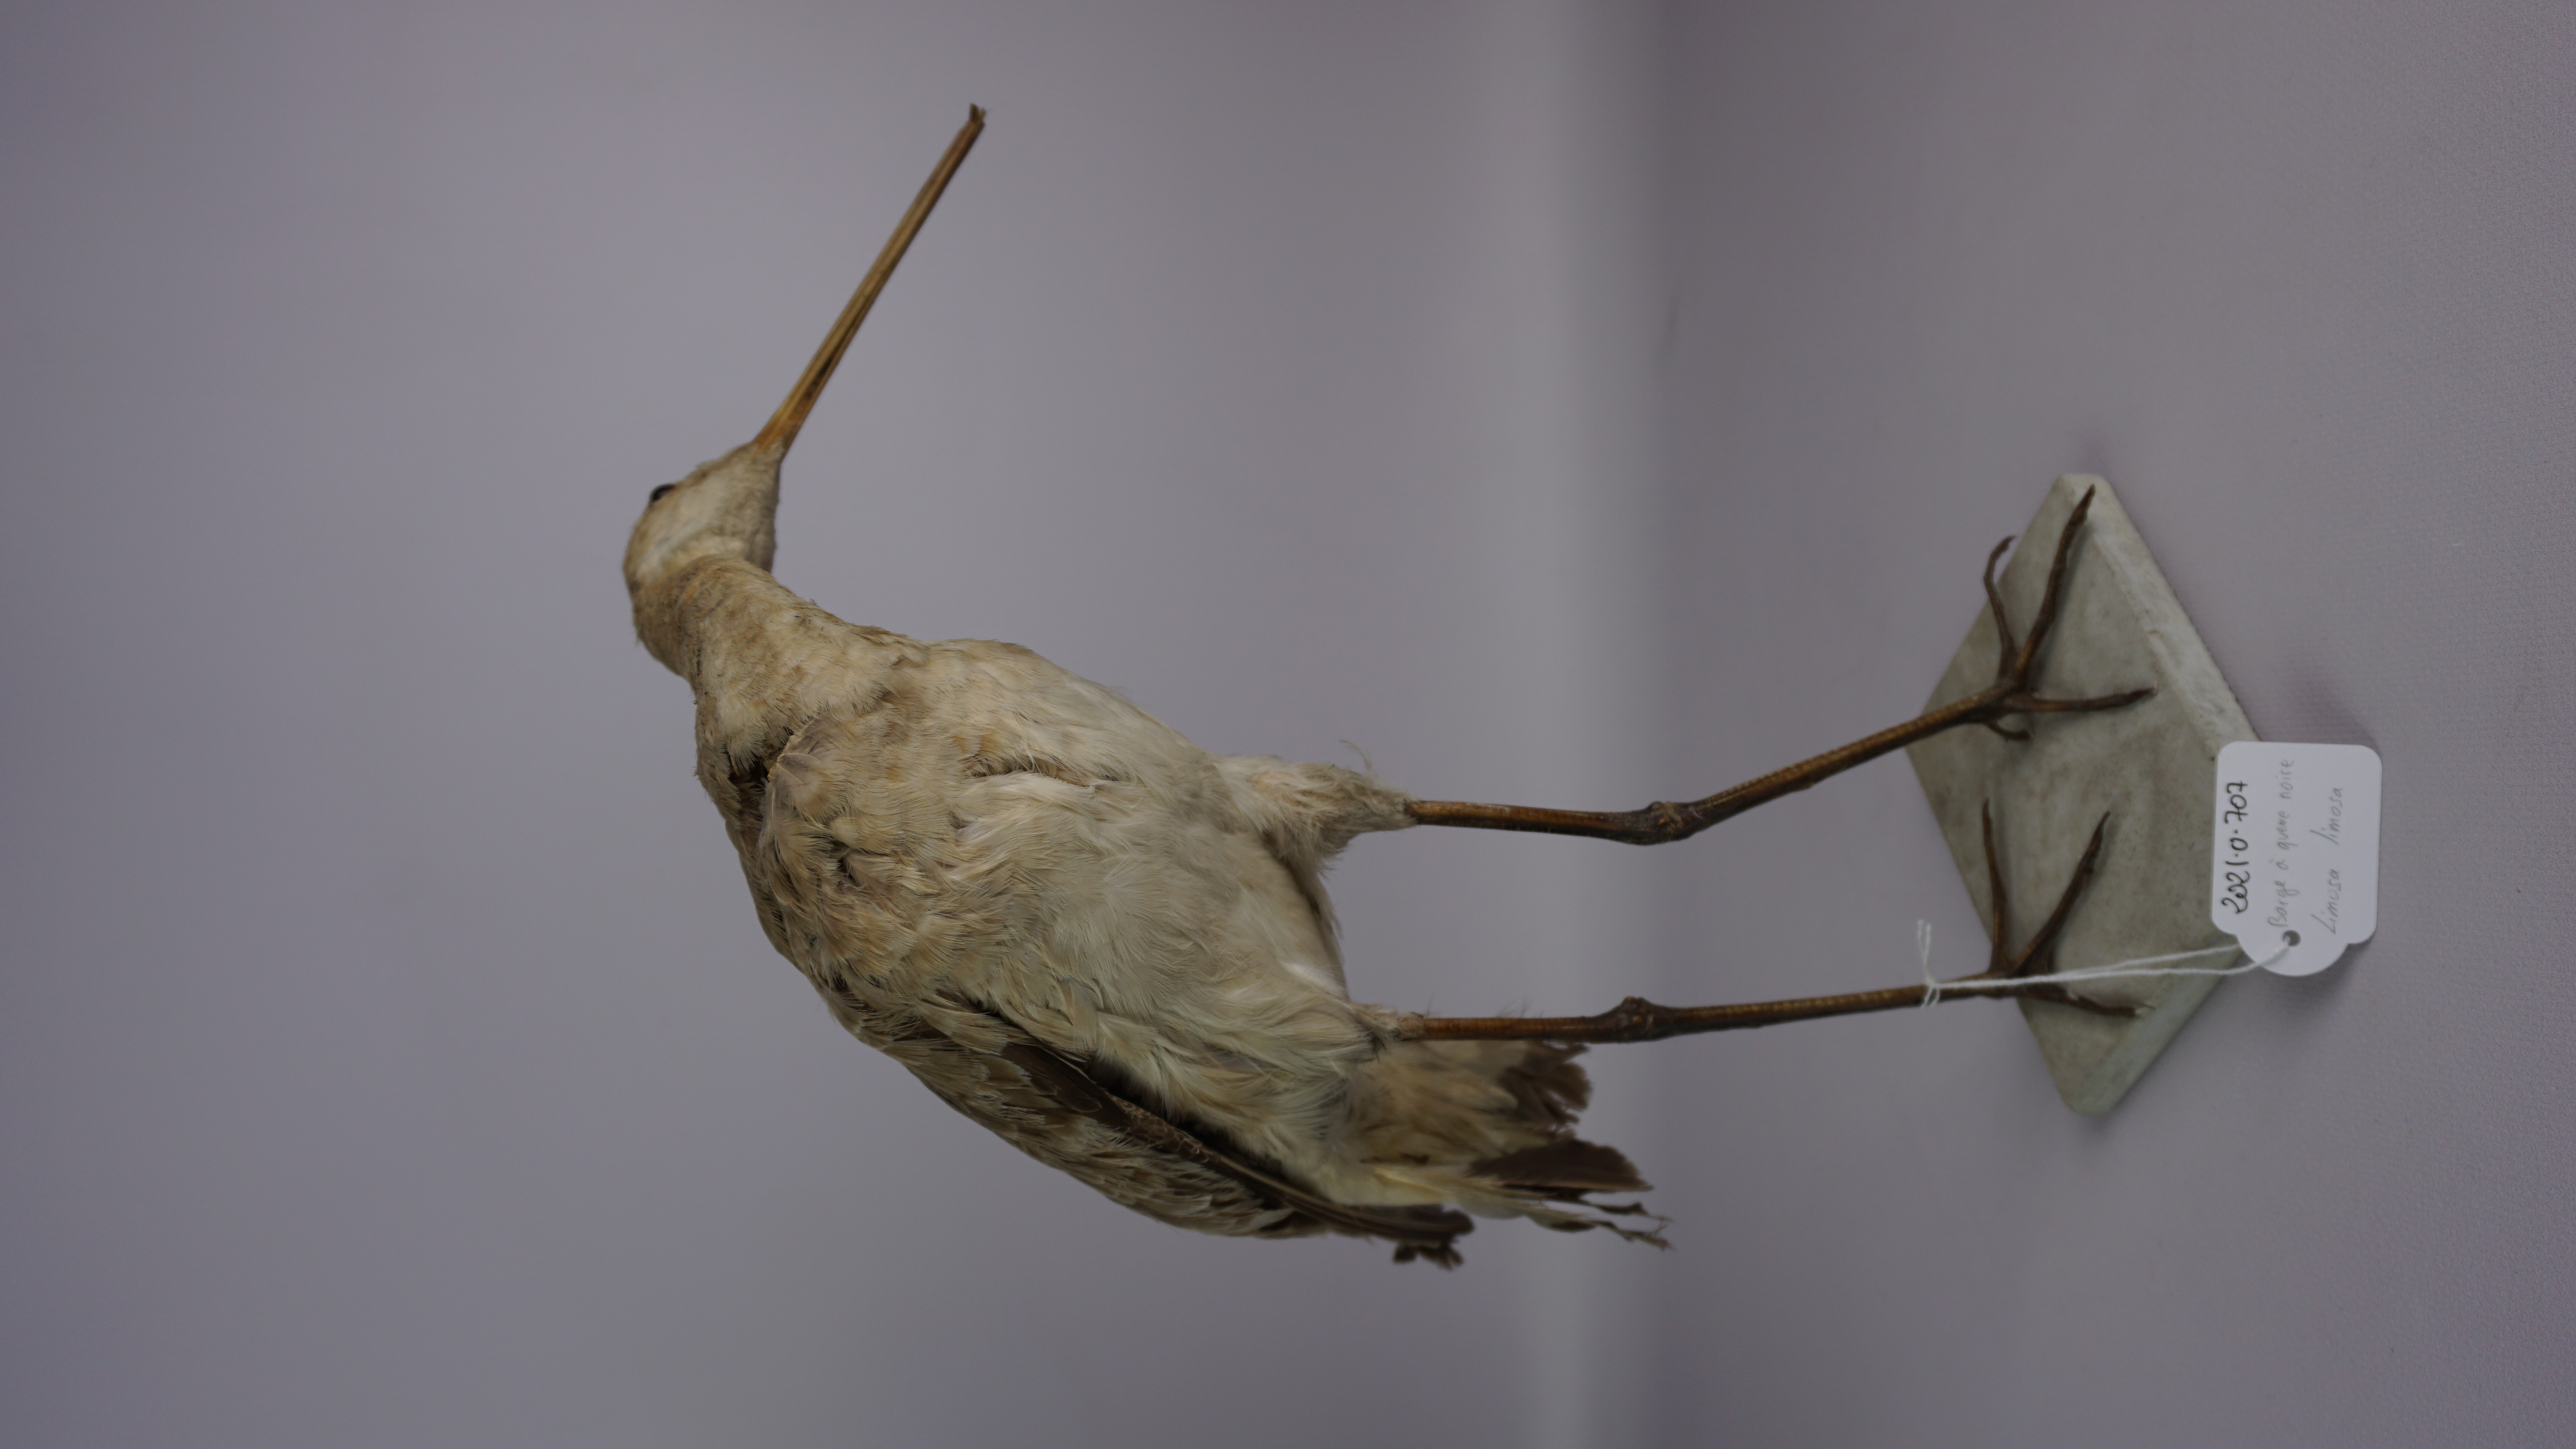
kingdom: Animalia
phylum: Chordata
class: Aves
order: Charadriiformes
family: Scolopacidae
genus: Limosa
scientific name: Limosa limosa
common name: Black-tailed godwit
